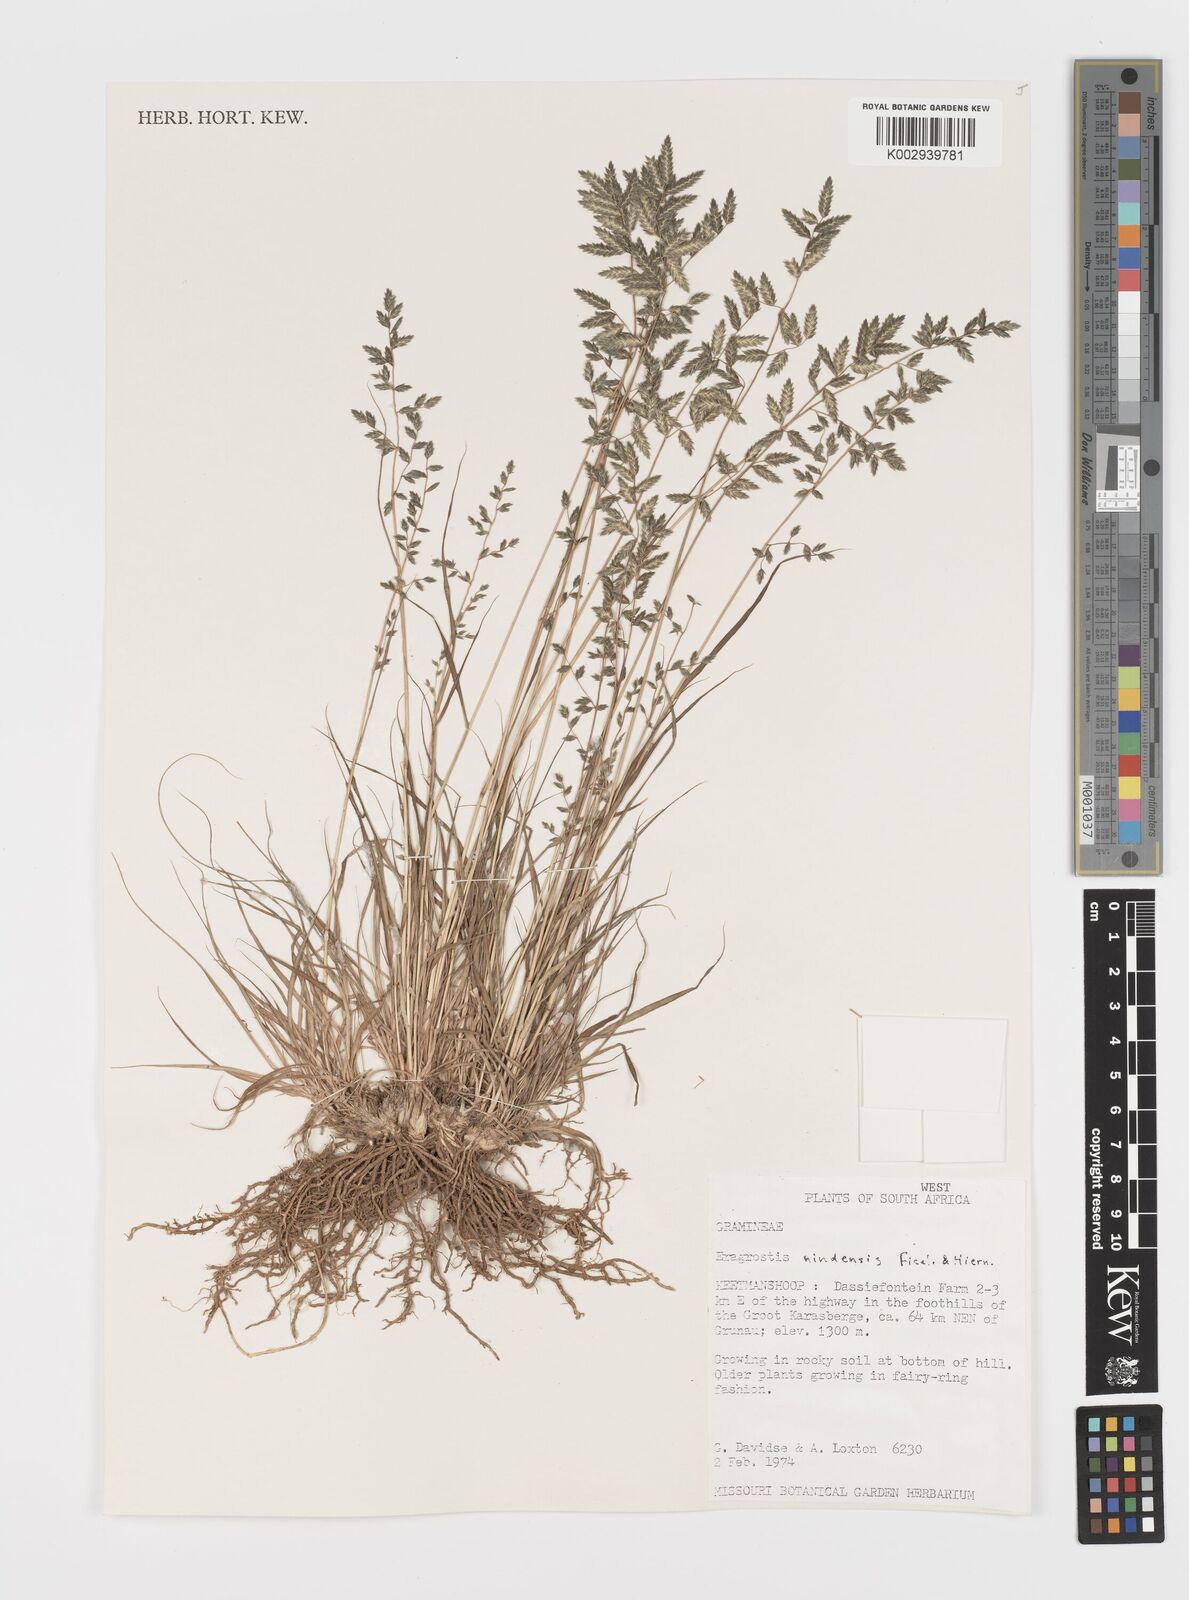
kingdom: Plantae
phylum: Tracheophyta
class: Liliopsida
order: Poales
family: Poaceae
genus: Eragrostis
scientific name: Eragrostis nindensis
